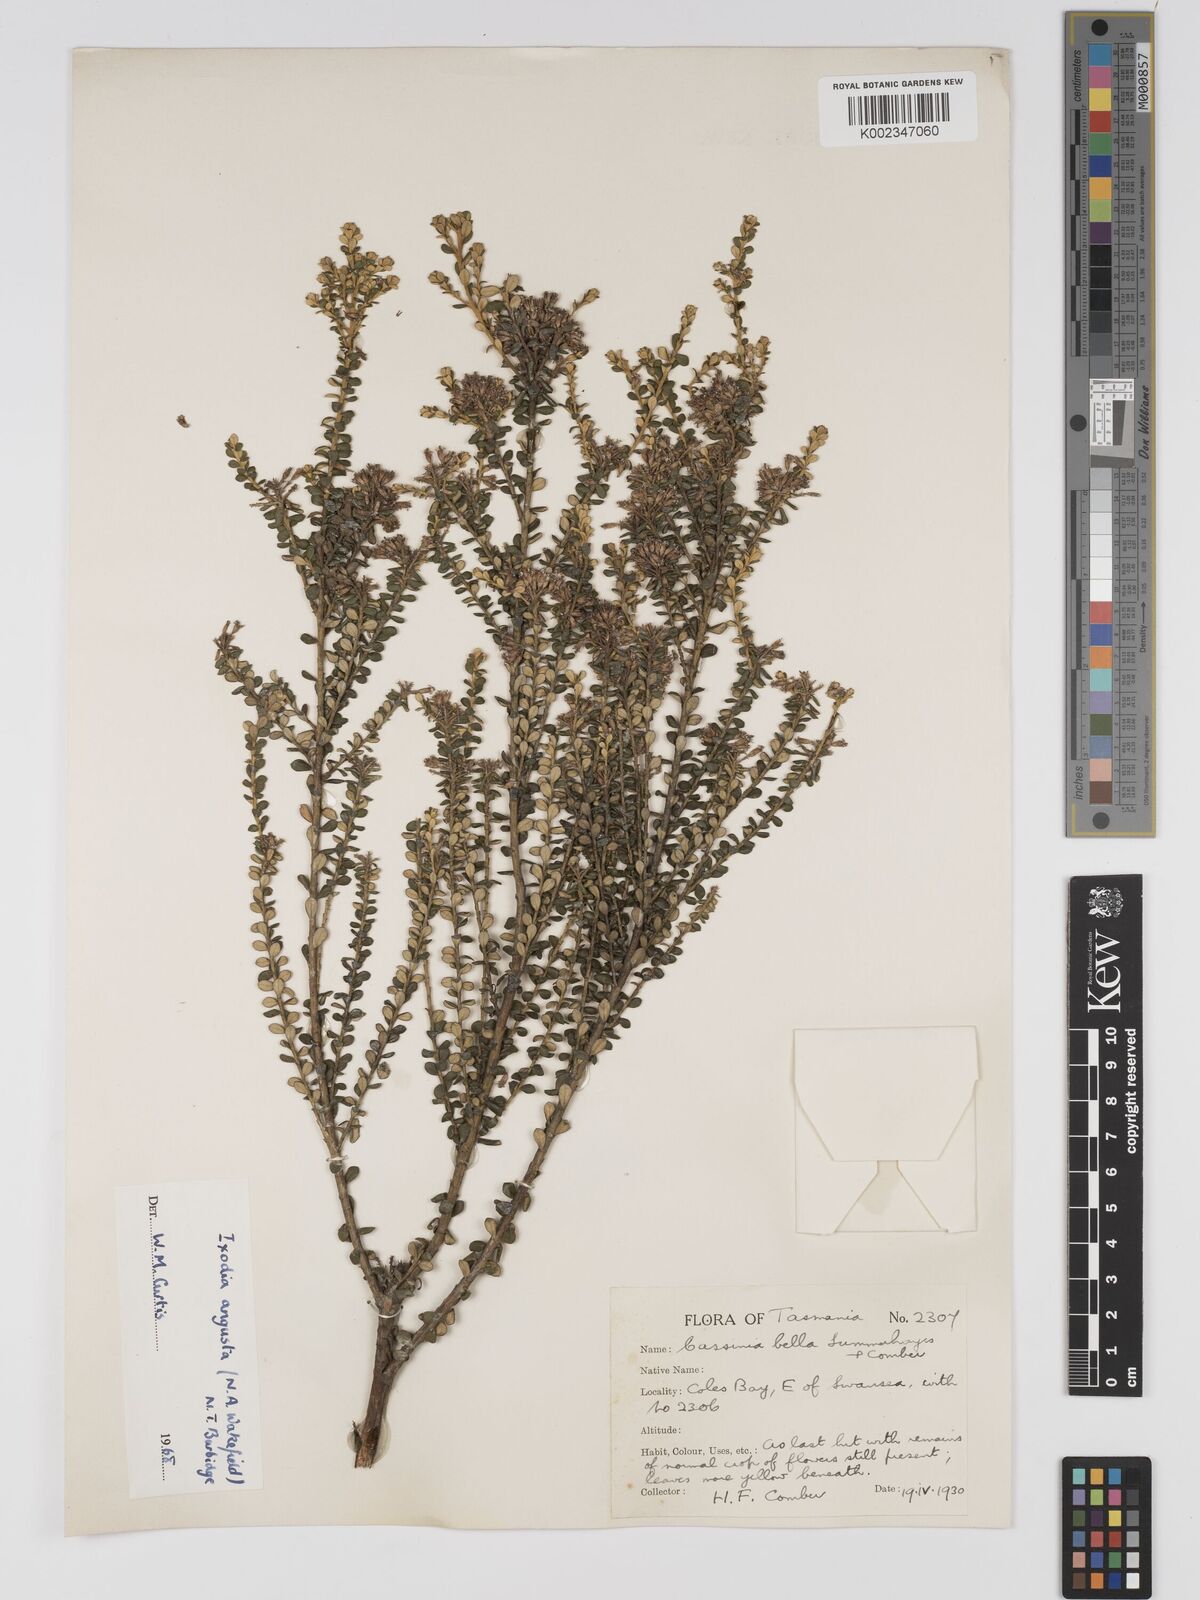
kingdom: Plantae
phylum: Tracheophyta
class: Magnoliopsida
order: Asterales
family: Asteraceae
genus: Odixia
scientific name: Odixia angusta
